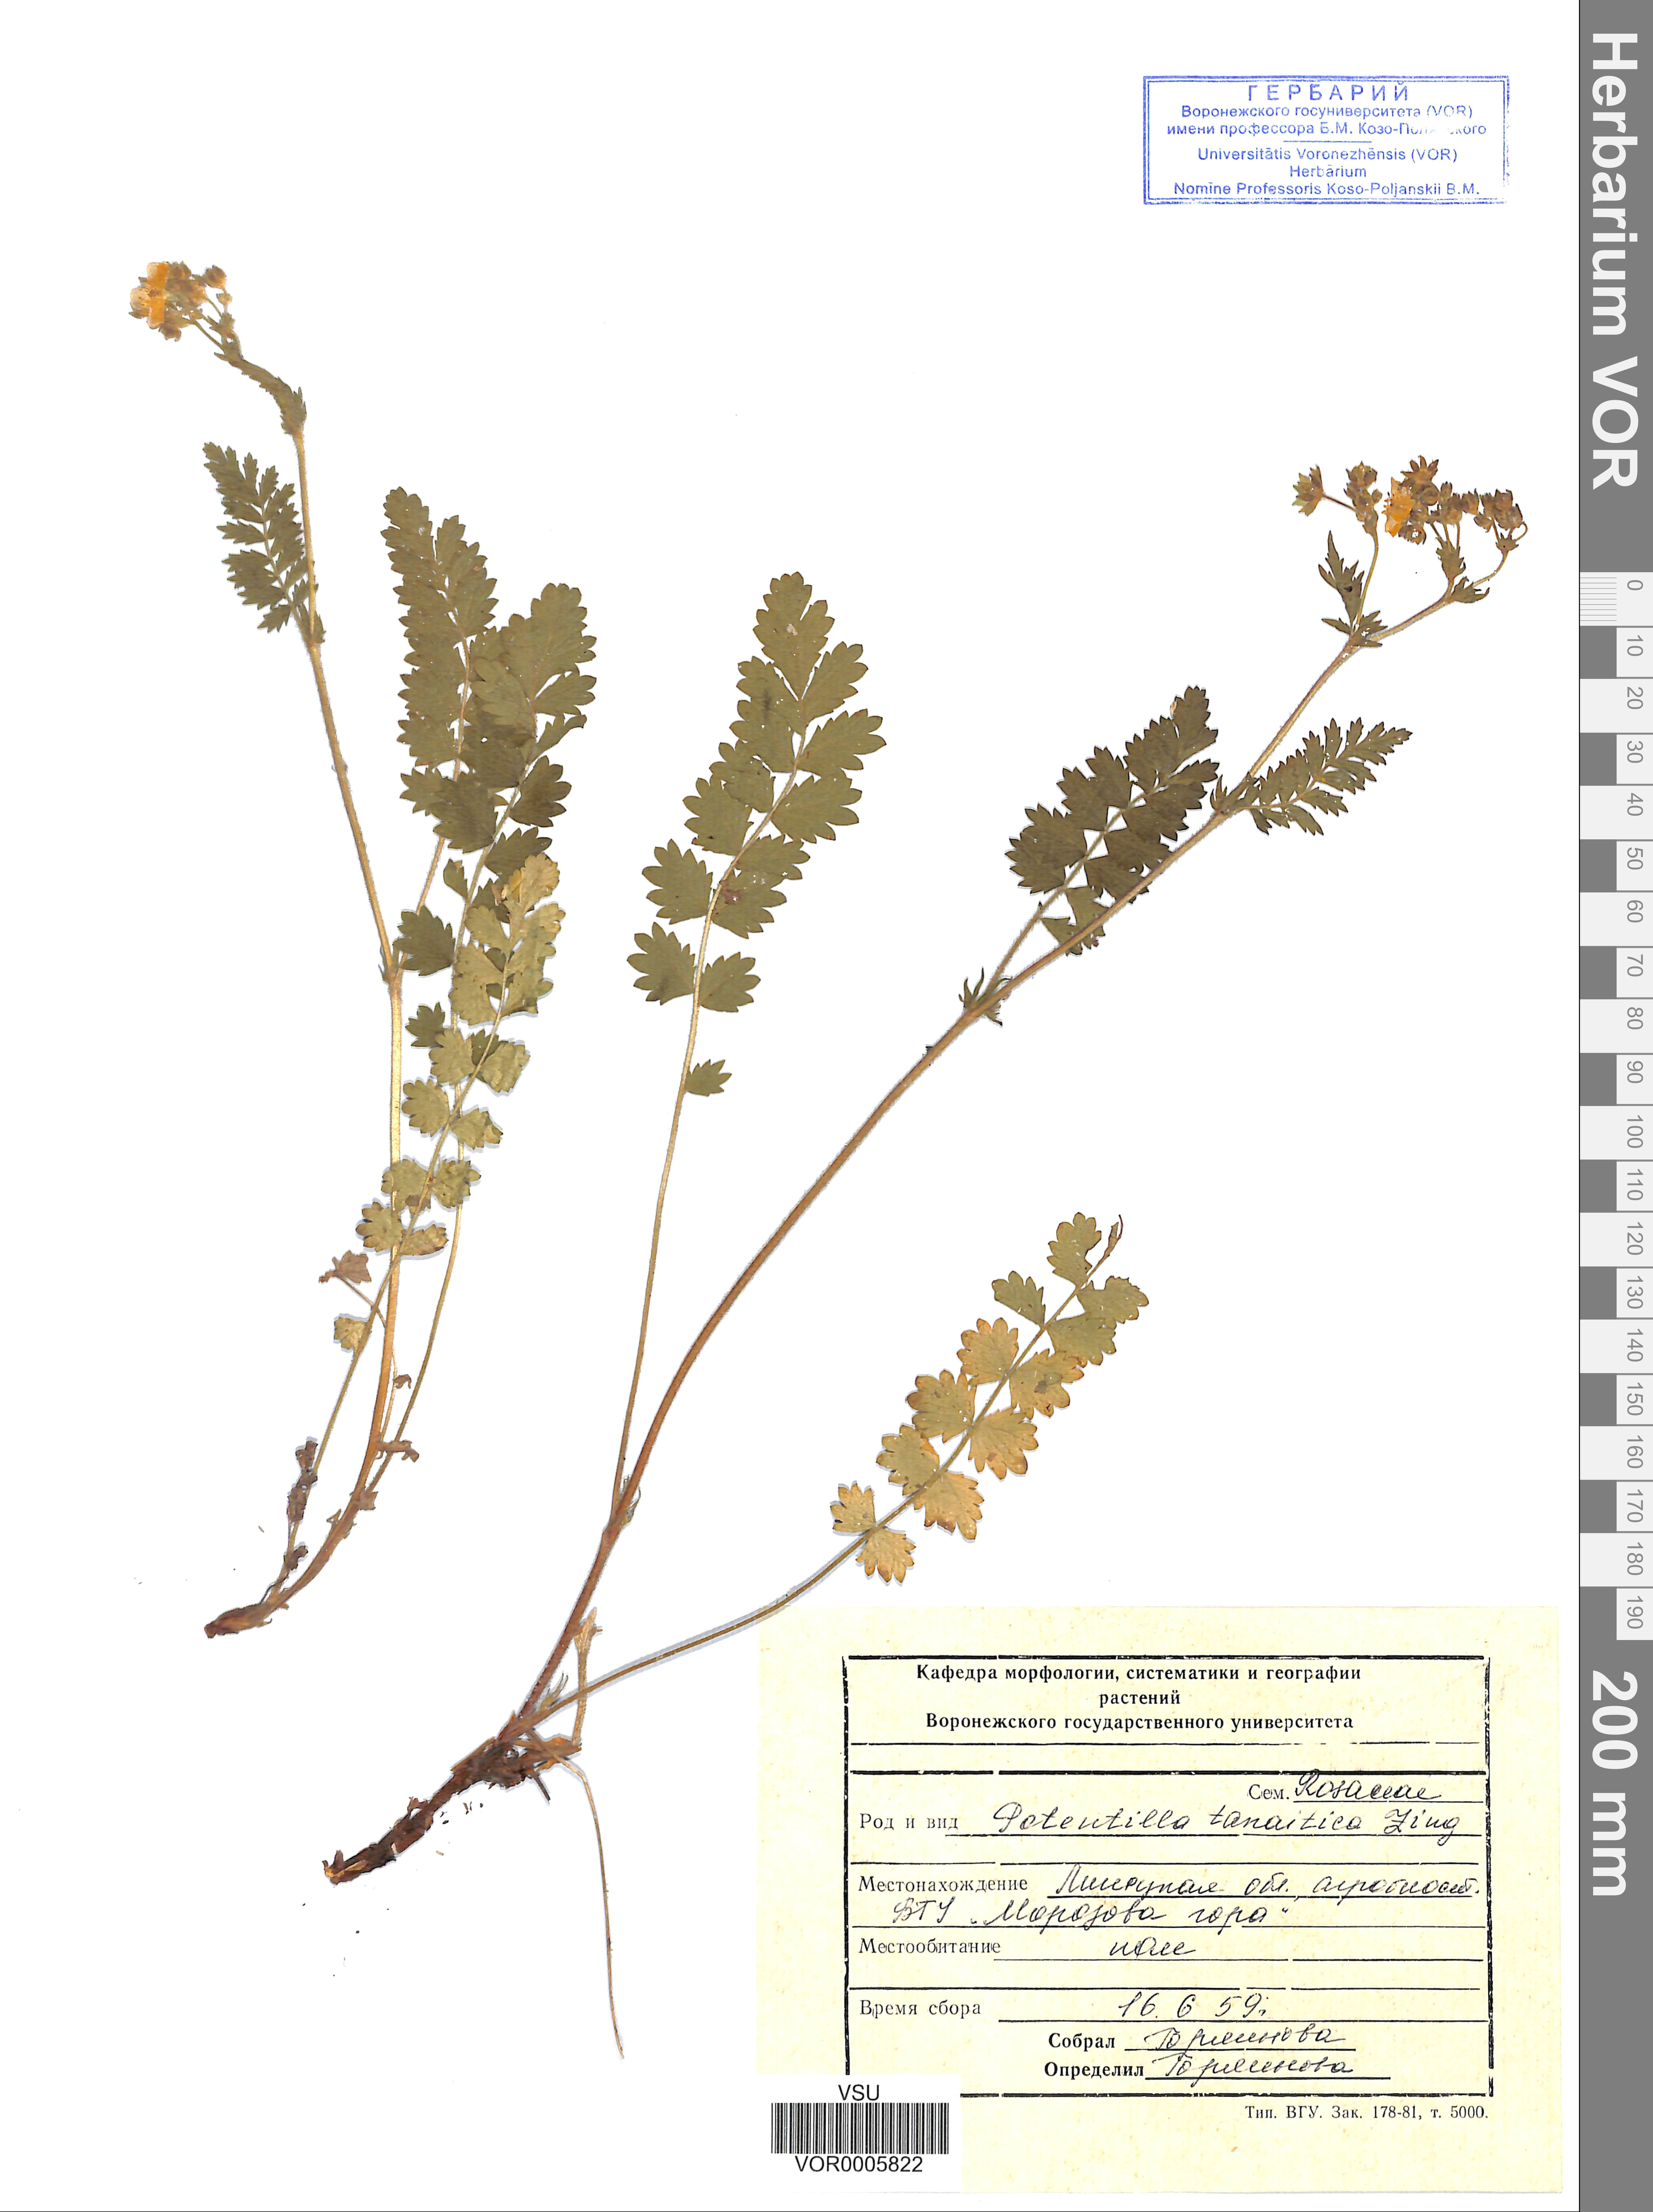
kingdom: Plantae
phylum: Tracheophyta
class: Magnoliopsida
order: Rosales
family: Rosaceae
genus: Potentilla
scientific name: Potentilla tanaitica
